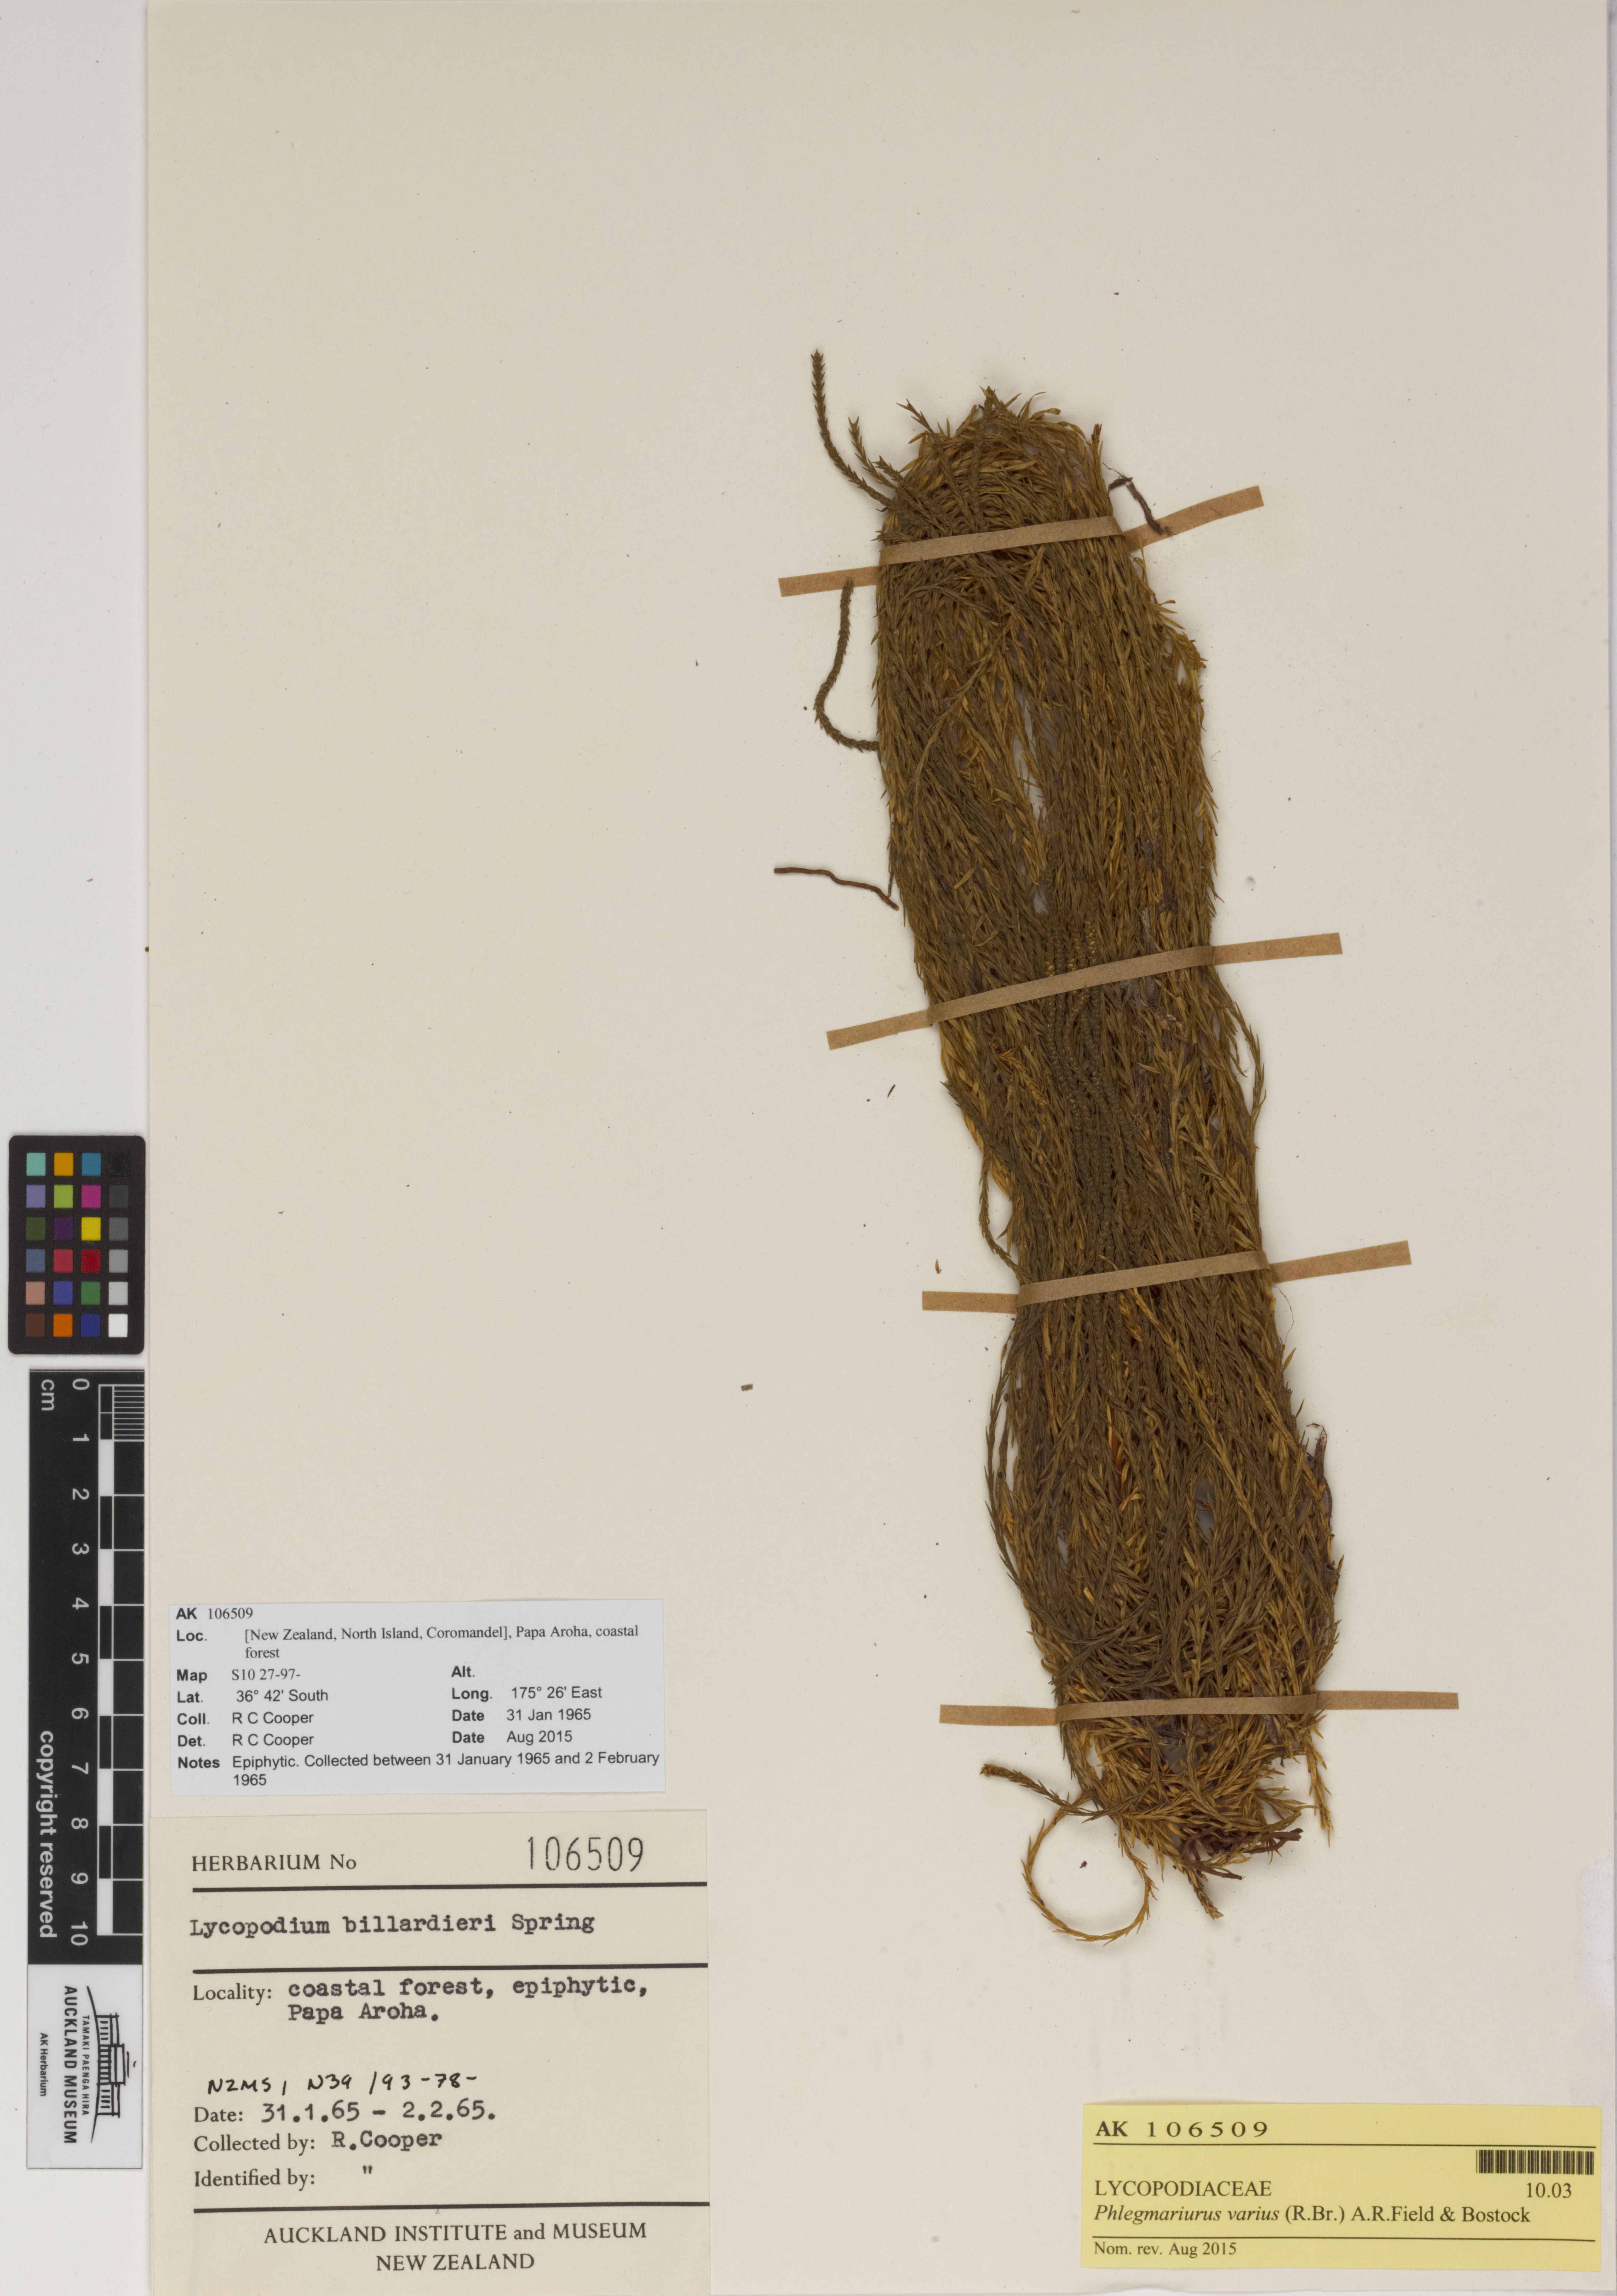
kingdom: Plantae
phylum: Tracheophyta
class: Lycopodiopsida
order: Lycopodiales
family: Lycopodiaceae
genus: Phlegmariurus
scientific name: Phlegmariurus billardierei
